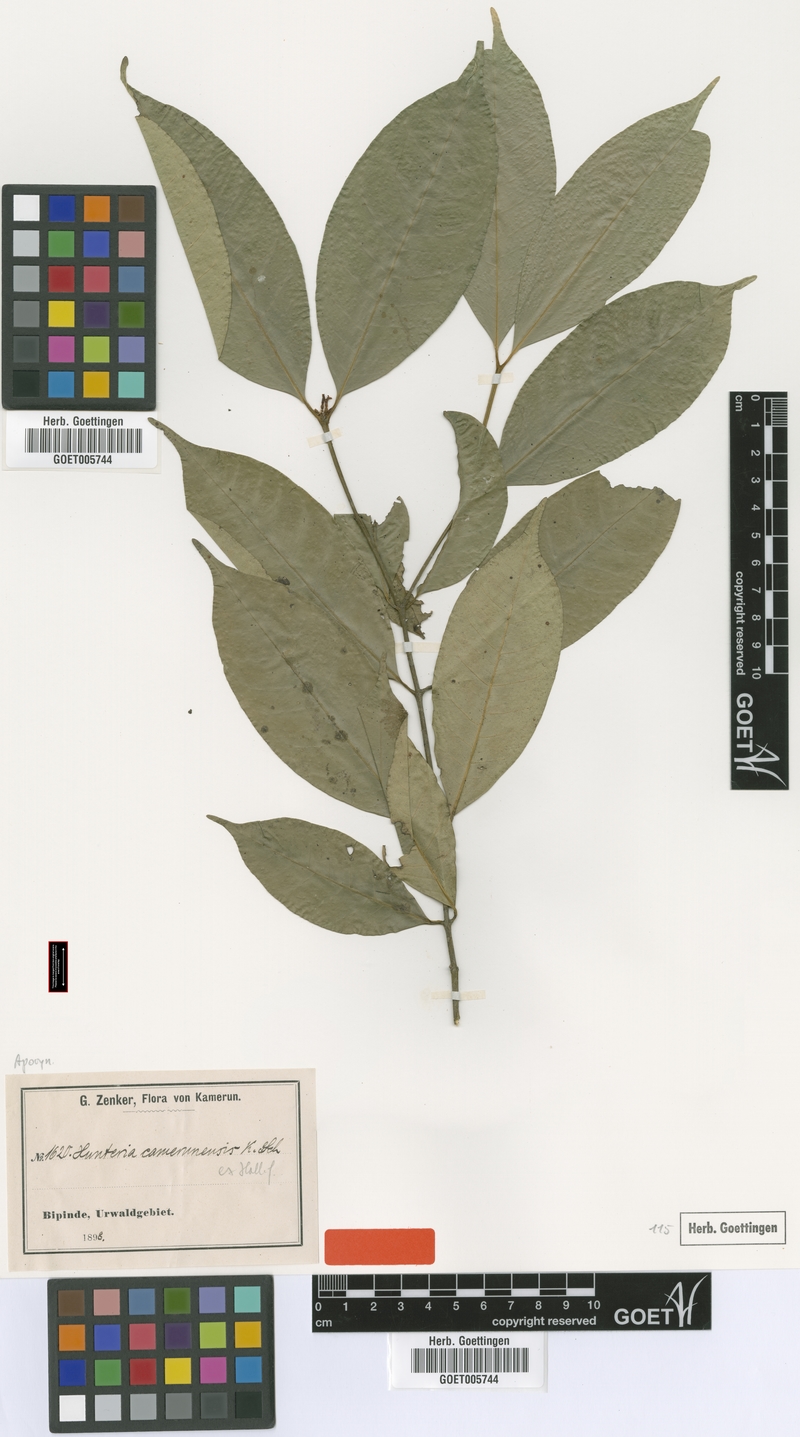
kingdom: Plantae
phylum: Tracheophyta
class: Magnoliopsida
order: Gentianales
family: Apocynaceae
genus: Hunteria
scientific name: Hunteria camerunensis
